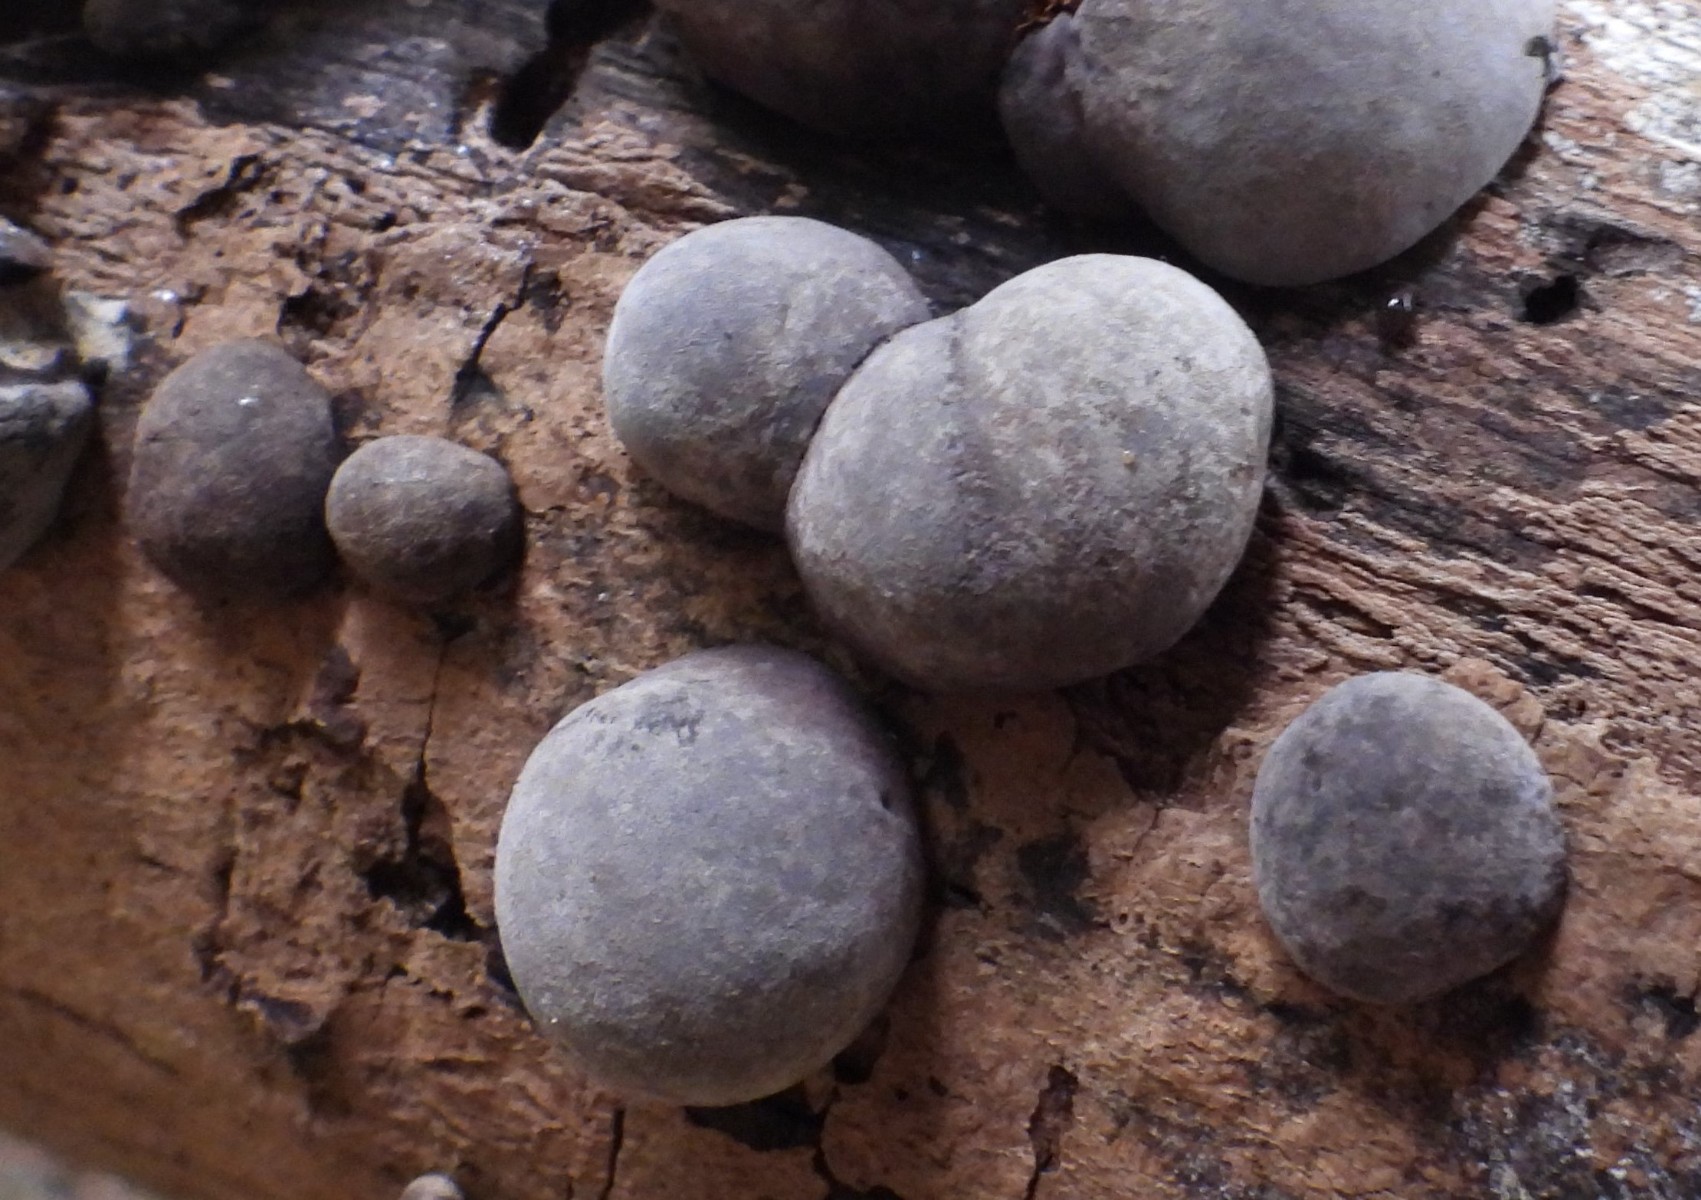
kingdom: Fungi
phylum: Ascomycota
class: Sordariomycetes
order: Xylariales
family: Hypoxylaceae
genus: Daldinia
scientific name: Daldinia concentrica
